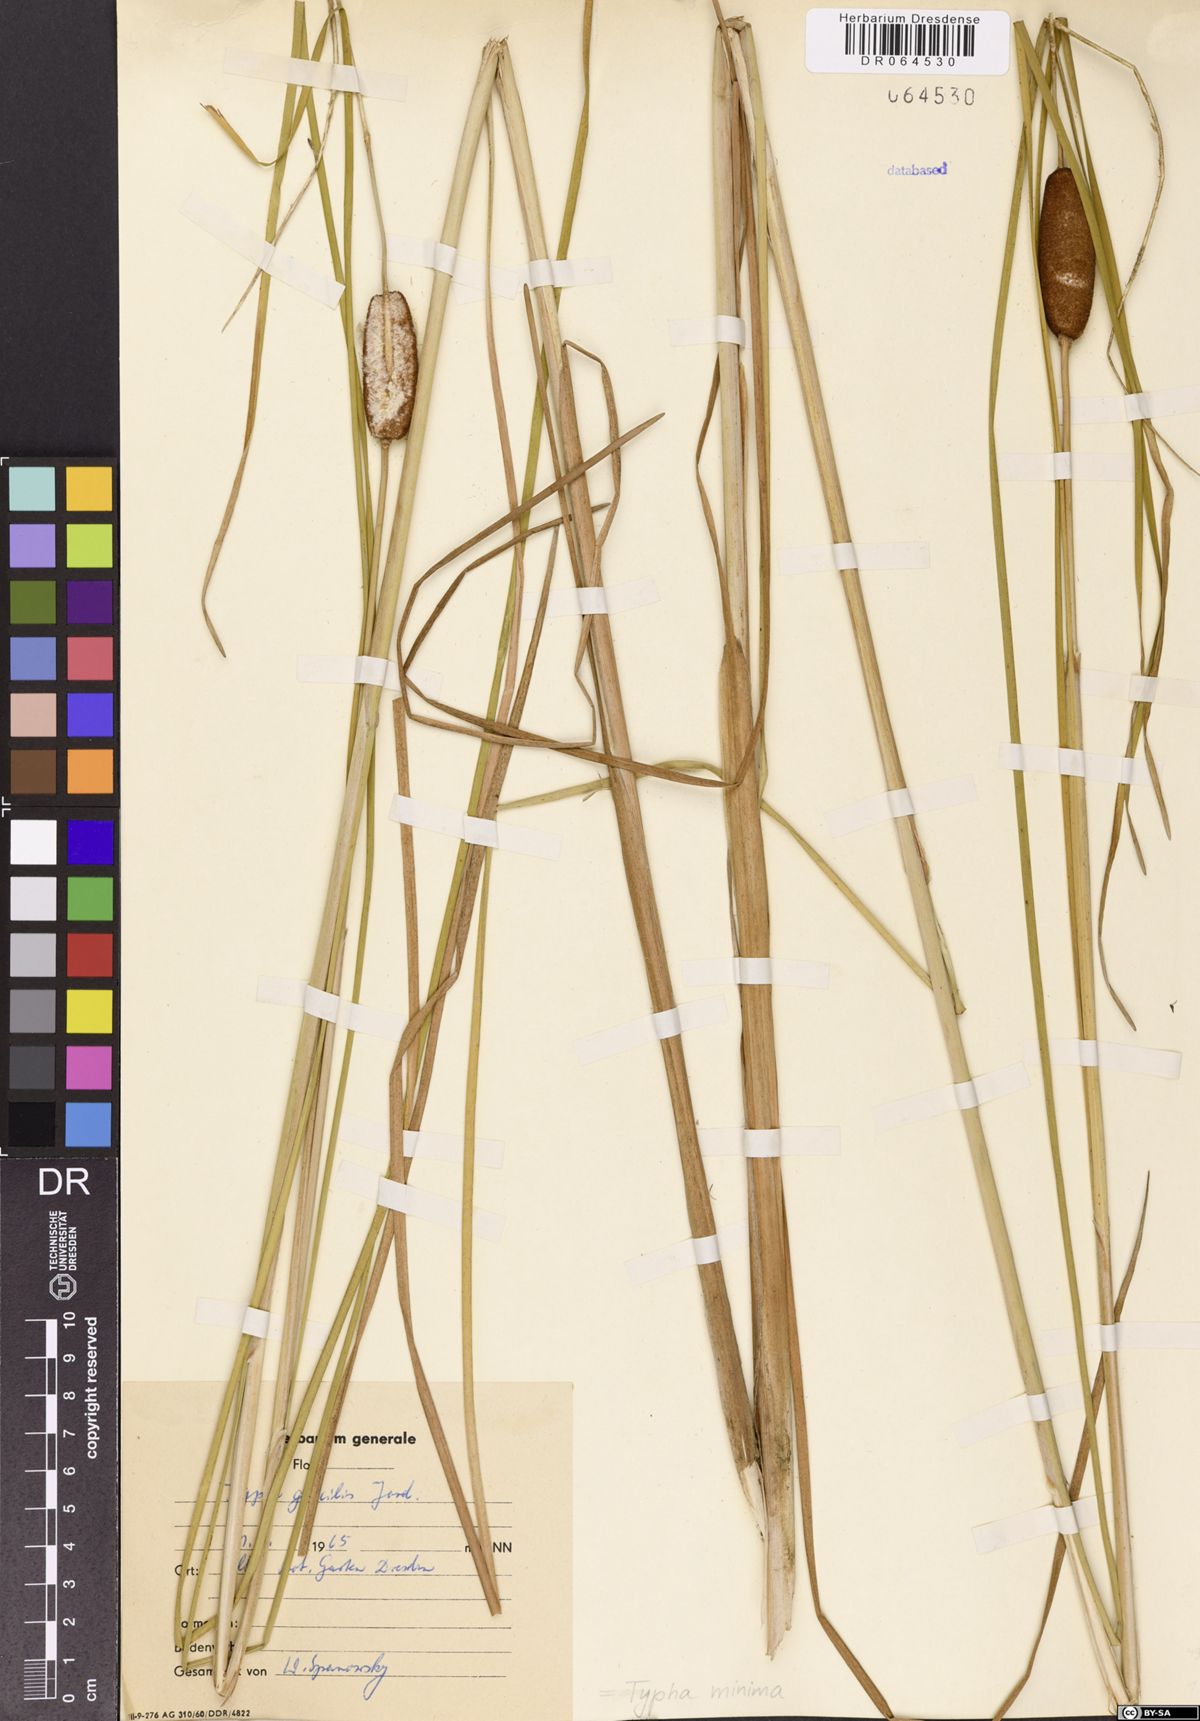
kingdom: Plantae
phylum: Tracheophyta
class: Liliopsida
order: Poales
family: Typhaceae
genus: Typha
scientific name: Typha minima
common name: Dwarf bulrush
